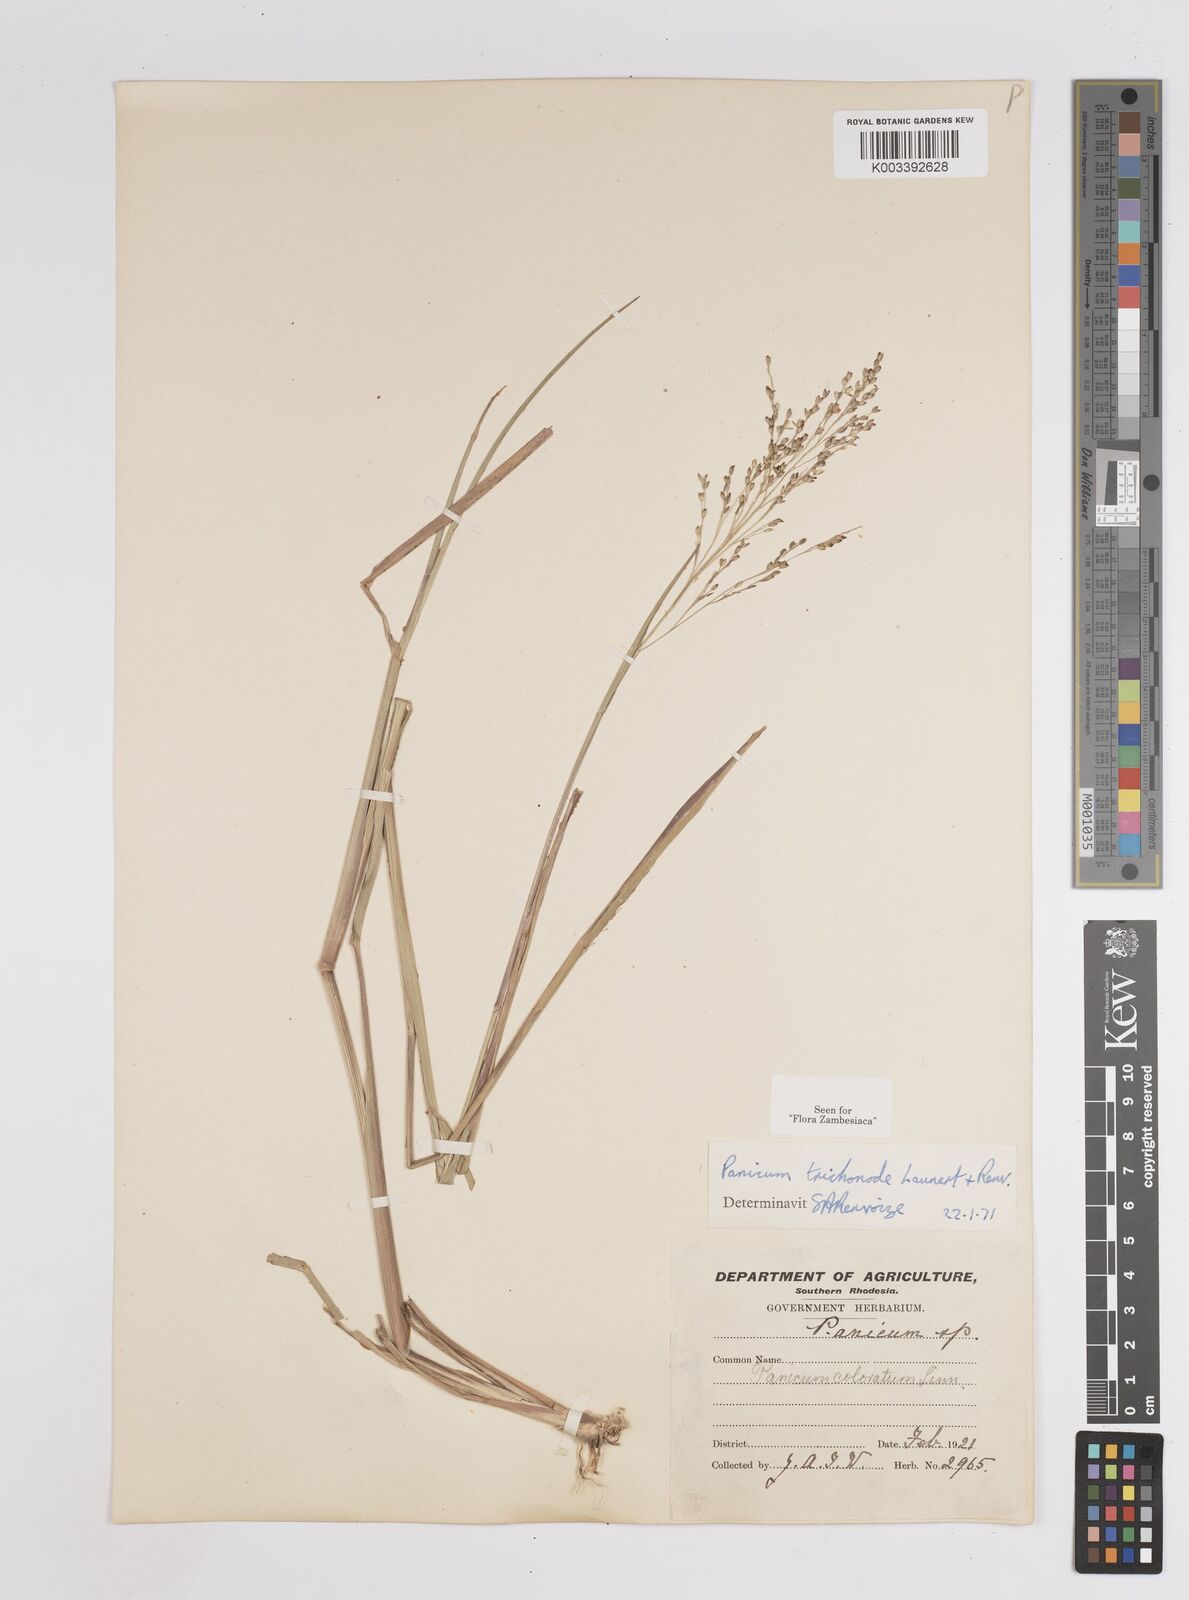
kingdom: Plantae
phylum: Tracheophyta
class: Liliopsida
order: Poales
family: Poaceae
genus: Panicum
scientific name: Panicum trichonode
